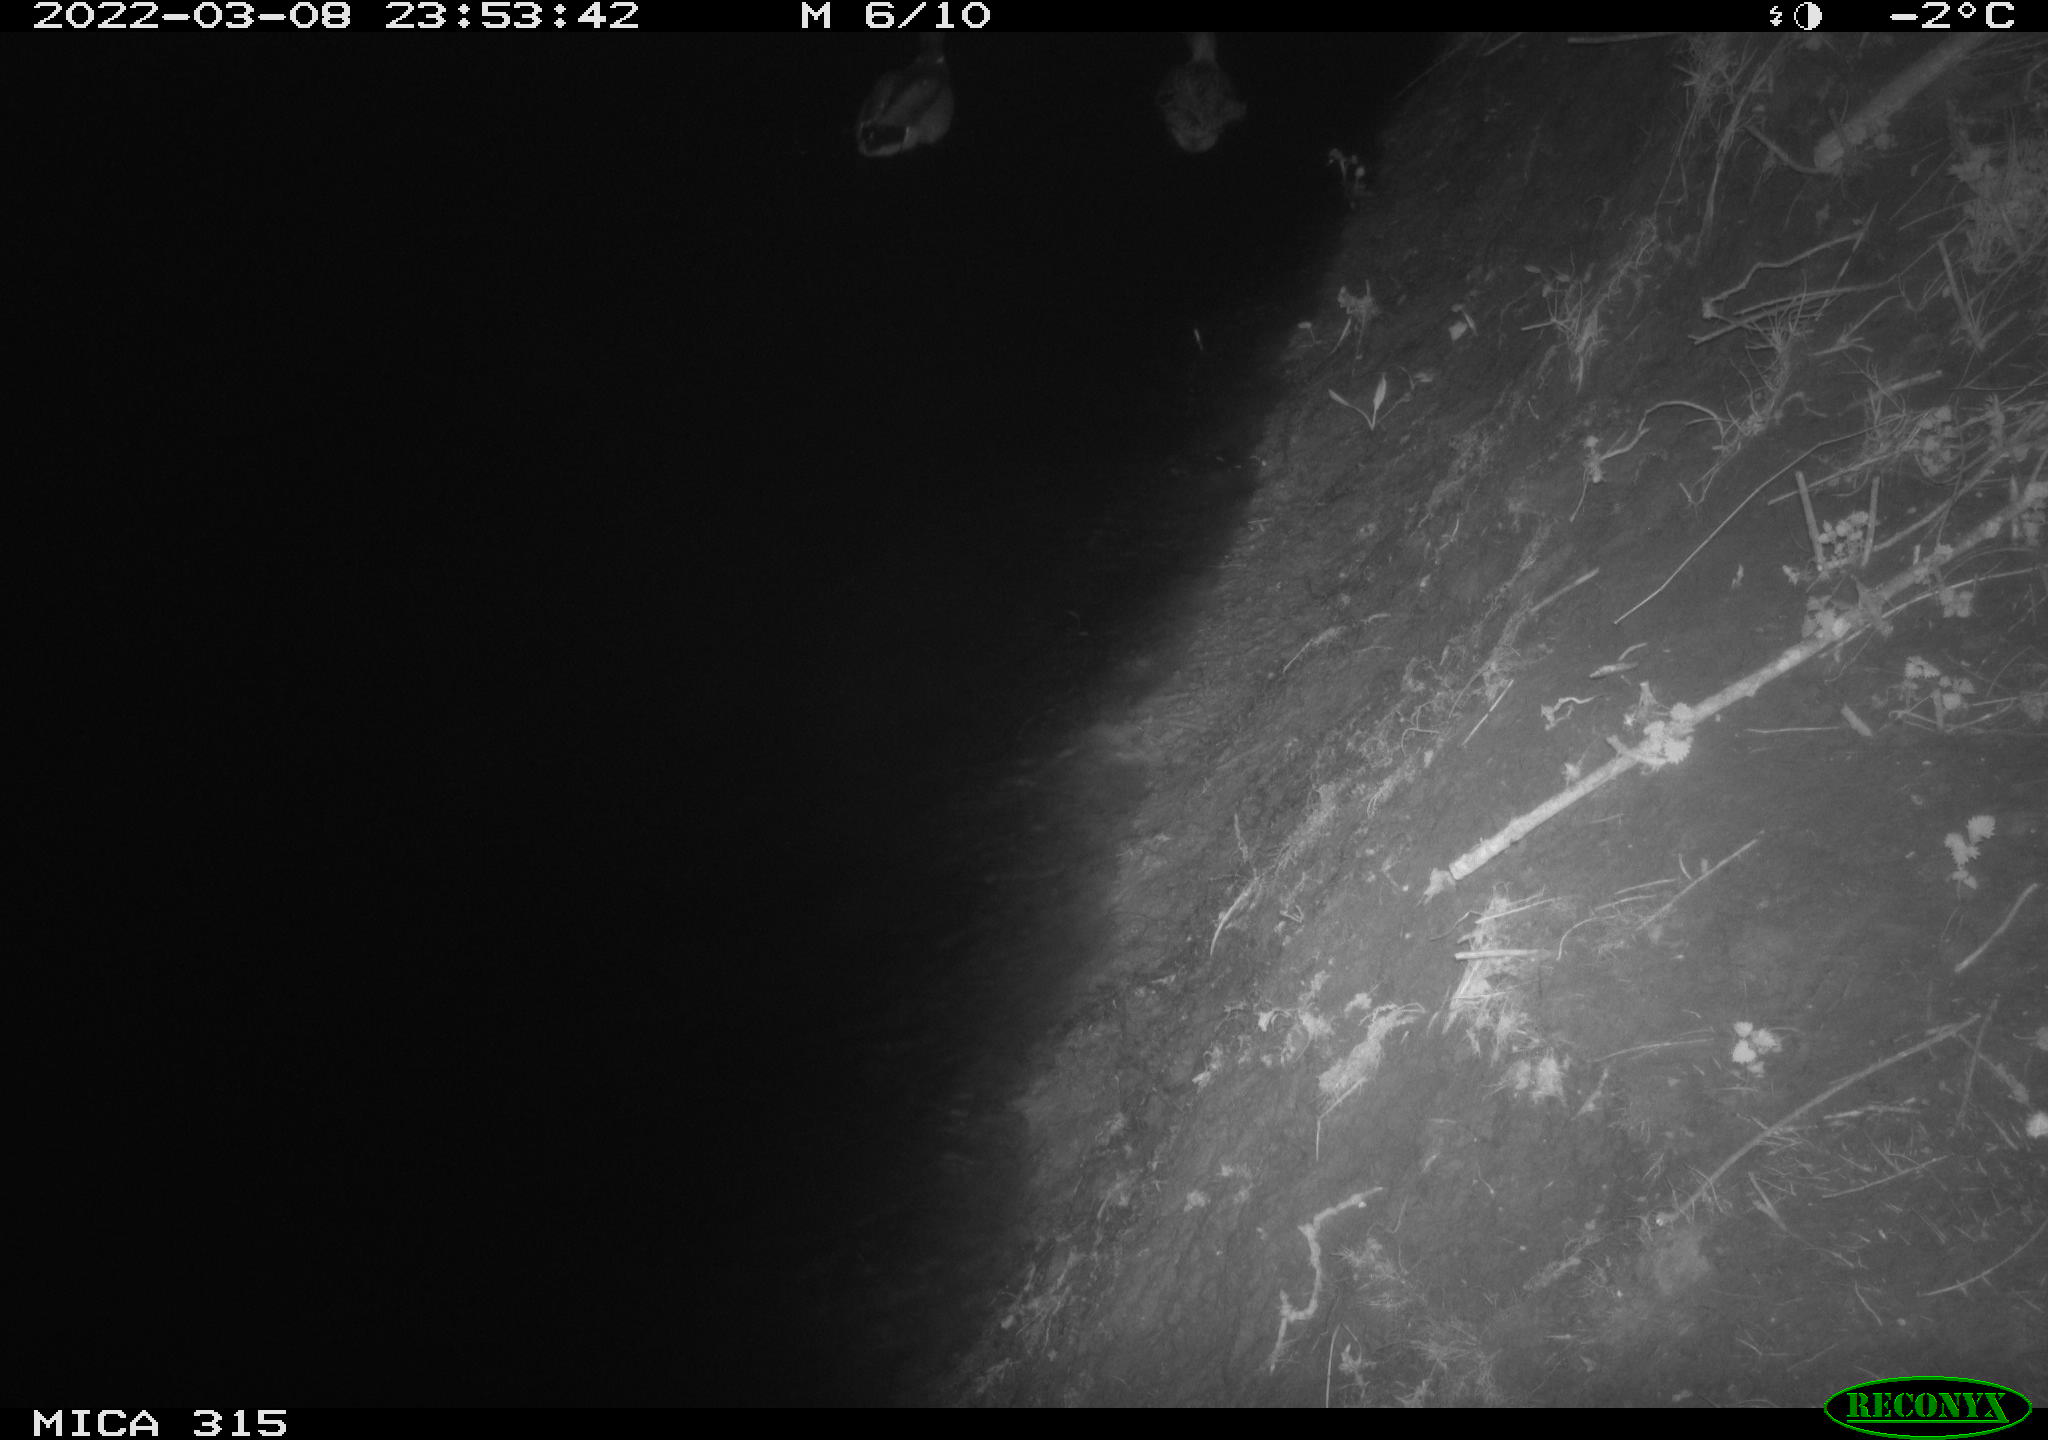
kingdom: Animalia
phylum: Chordata
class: Aves
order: Anseriformes
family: Anatidae
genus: Anas
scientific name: Anas platyrhynchos
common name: Mallard
